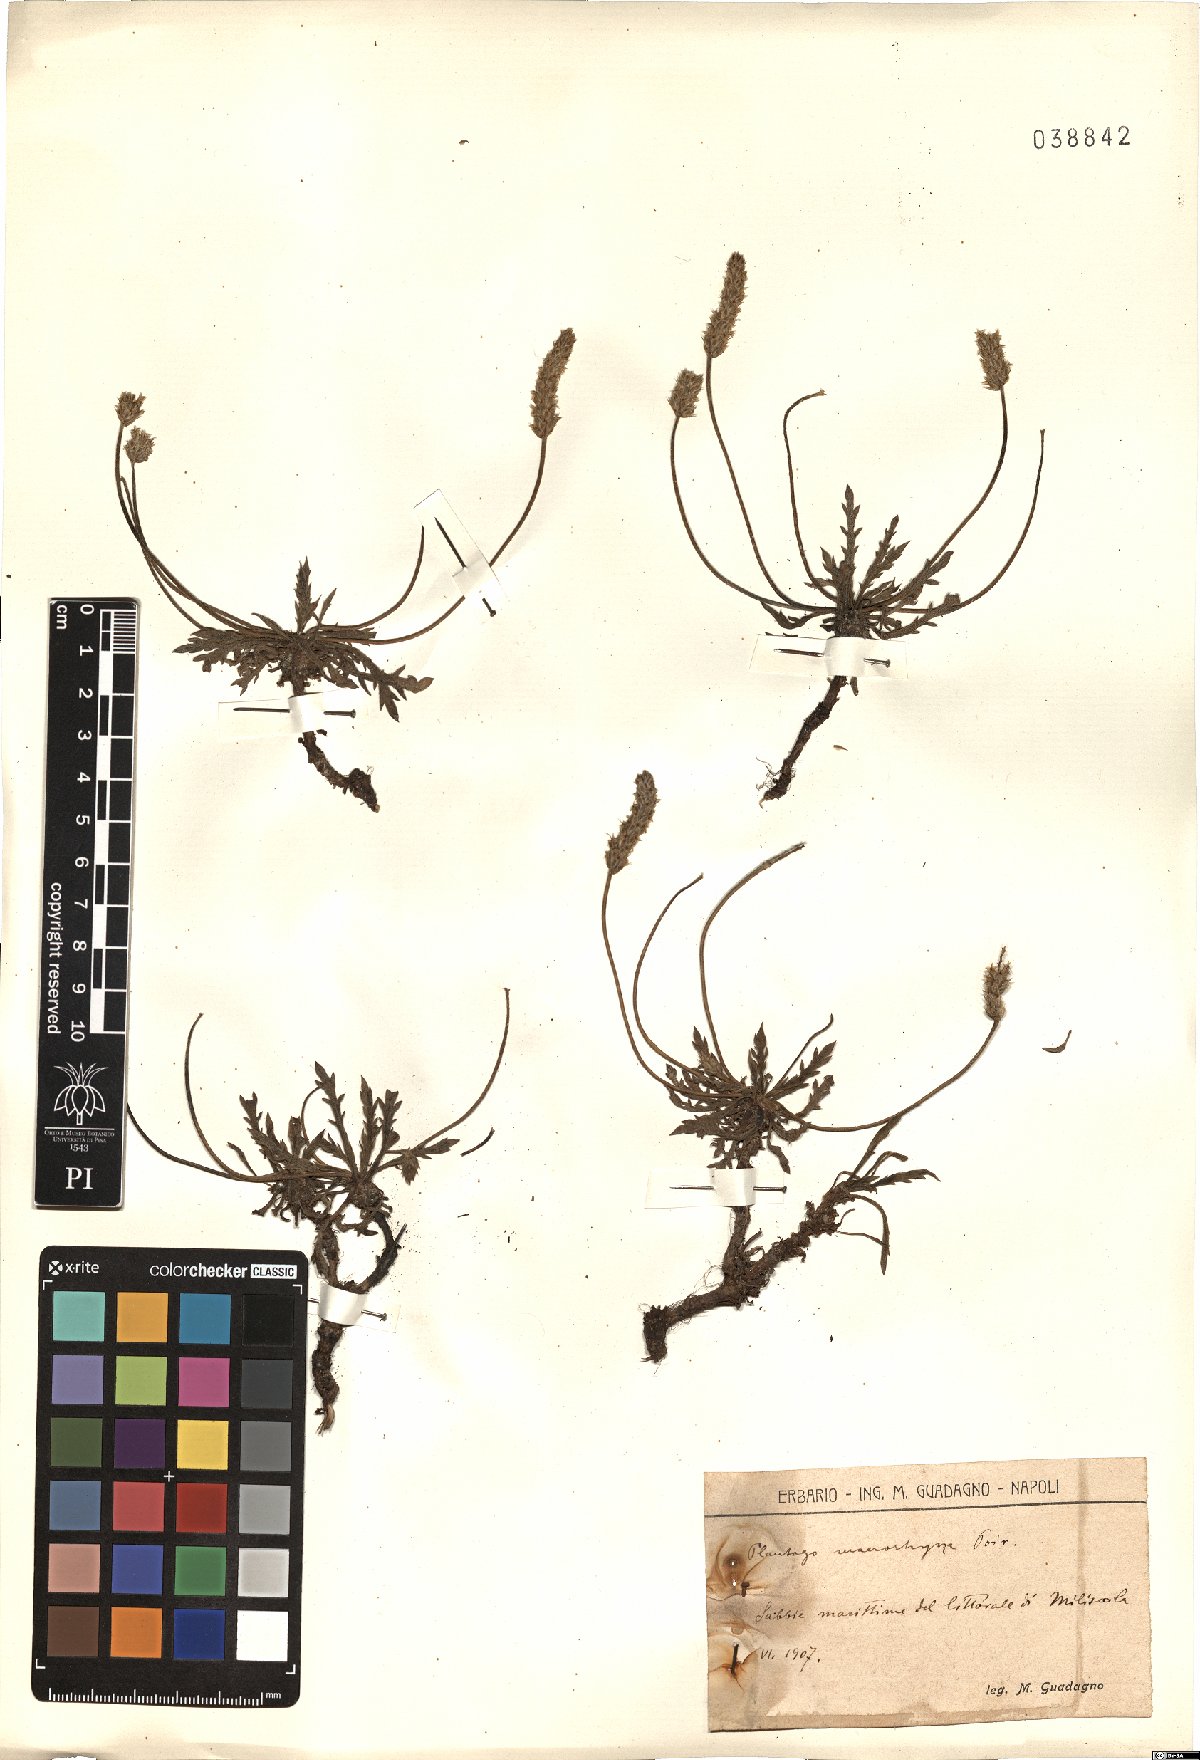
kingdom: Plantae
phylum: Tracheophyta
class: Magnoliopsida
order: Lamiales
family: Plantaginaceae
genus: Plantago
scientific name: Plantago macrorhiza
